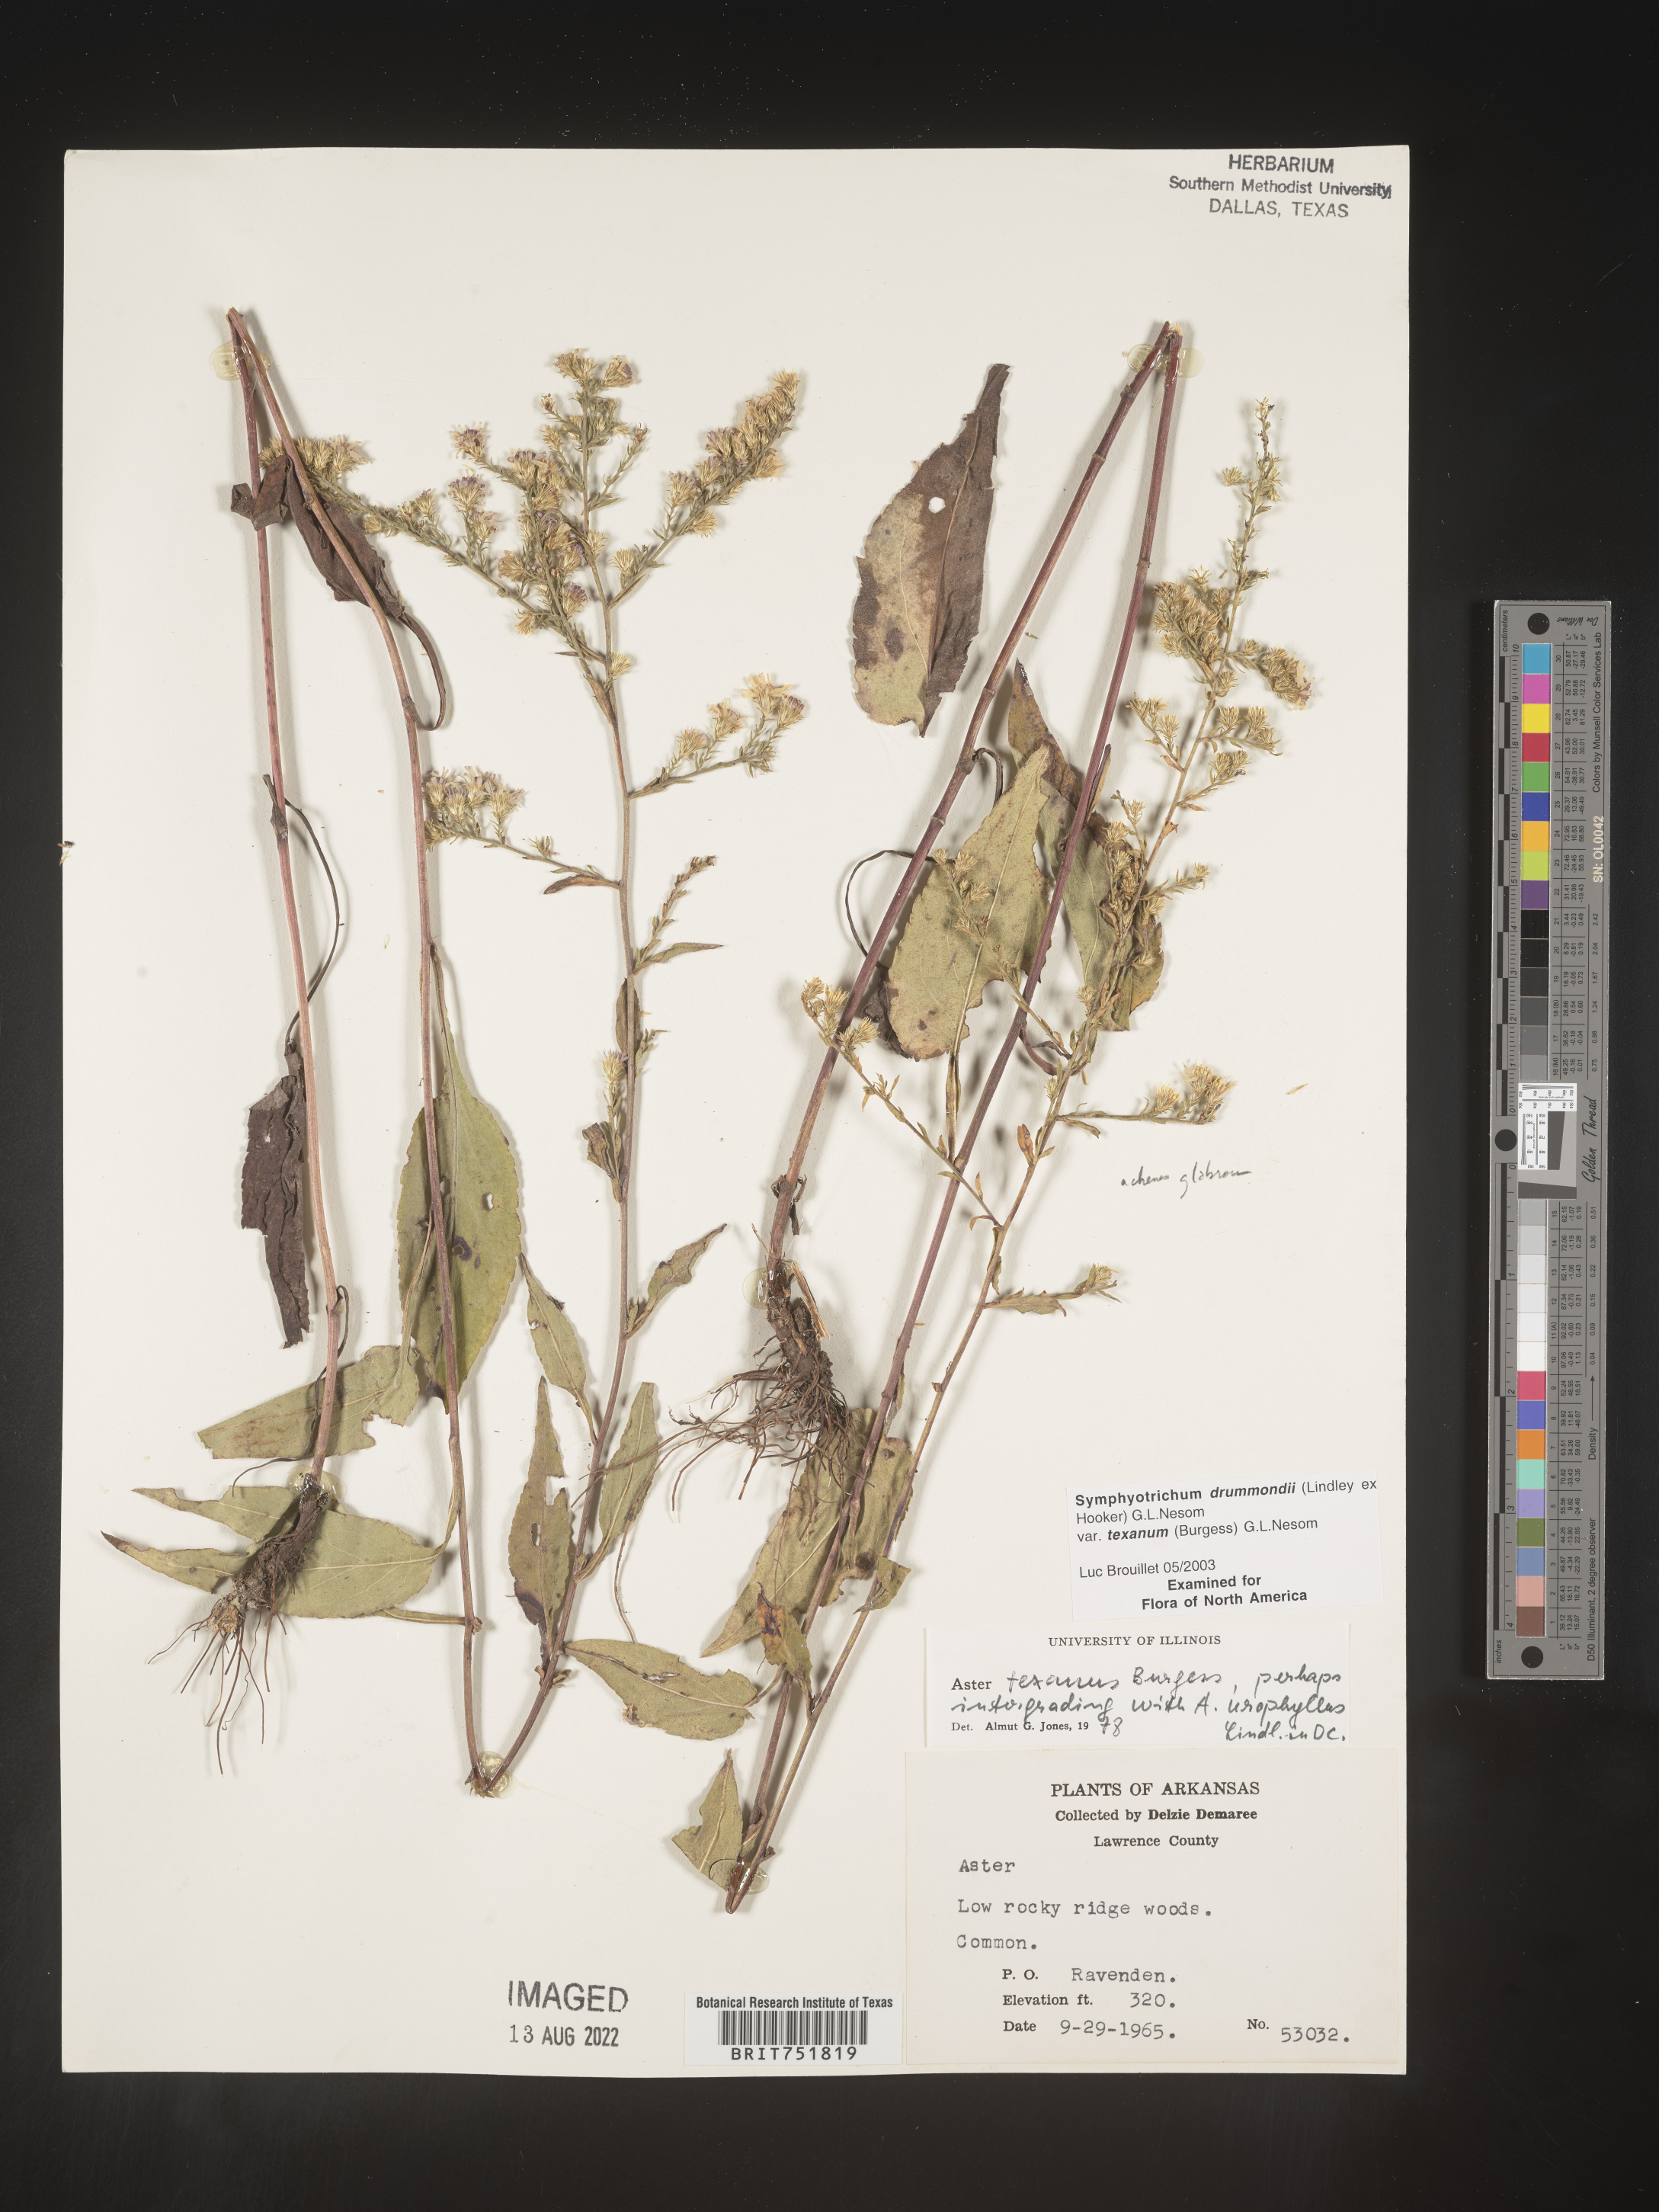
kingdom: Plantae
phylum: Tracheophyta
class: Magnoliopsida
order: Asterales
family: Asteraceae
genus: Symphyotrichum
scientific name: Symphyotrichum drummondii
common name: Drummond's aster
